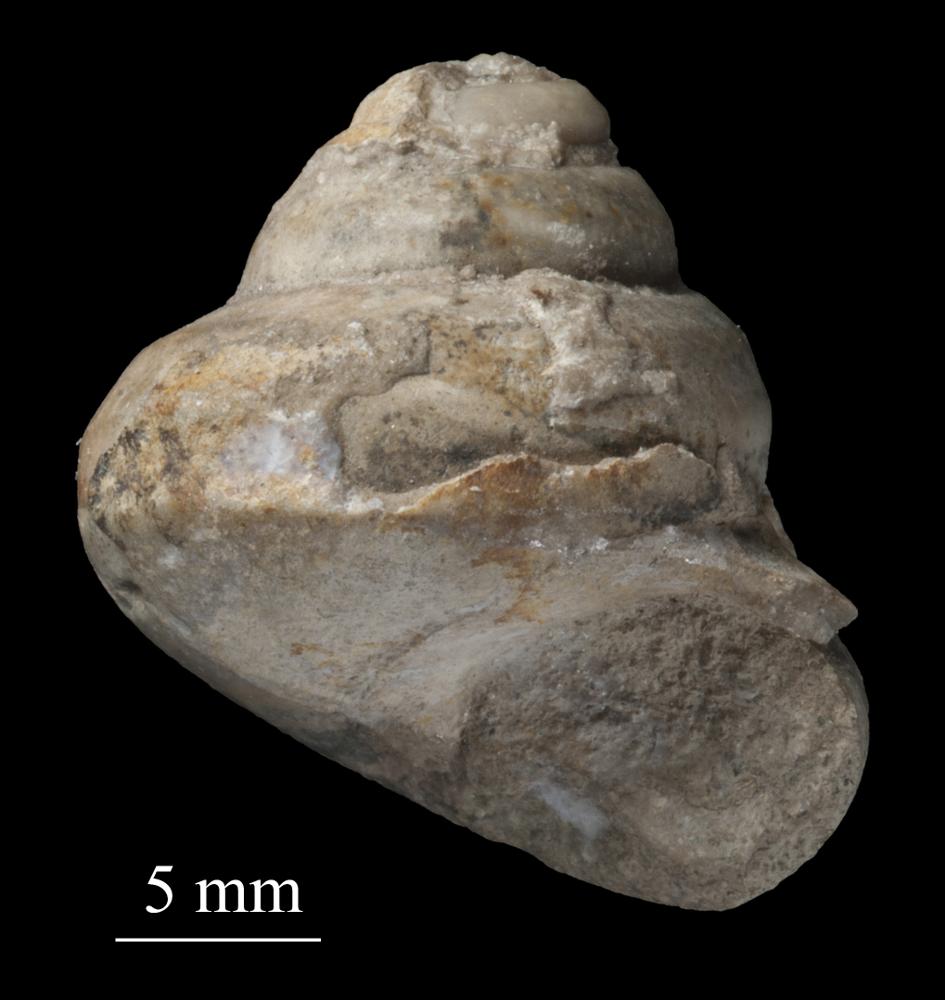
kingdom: Animalia
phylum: Mollusca
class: Gastropoda
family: Lophospiridae
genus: Proturritella
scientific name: Proturritella Turbinites bicarinatus
